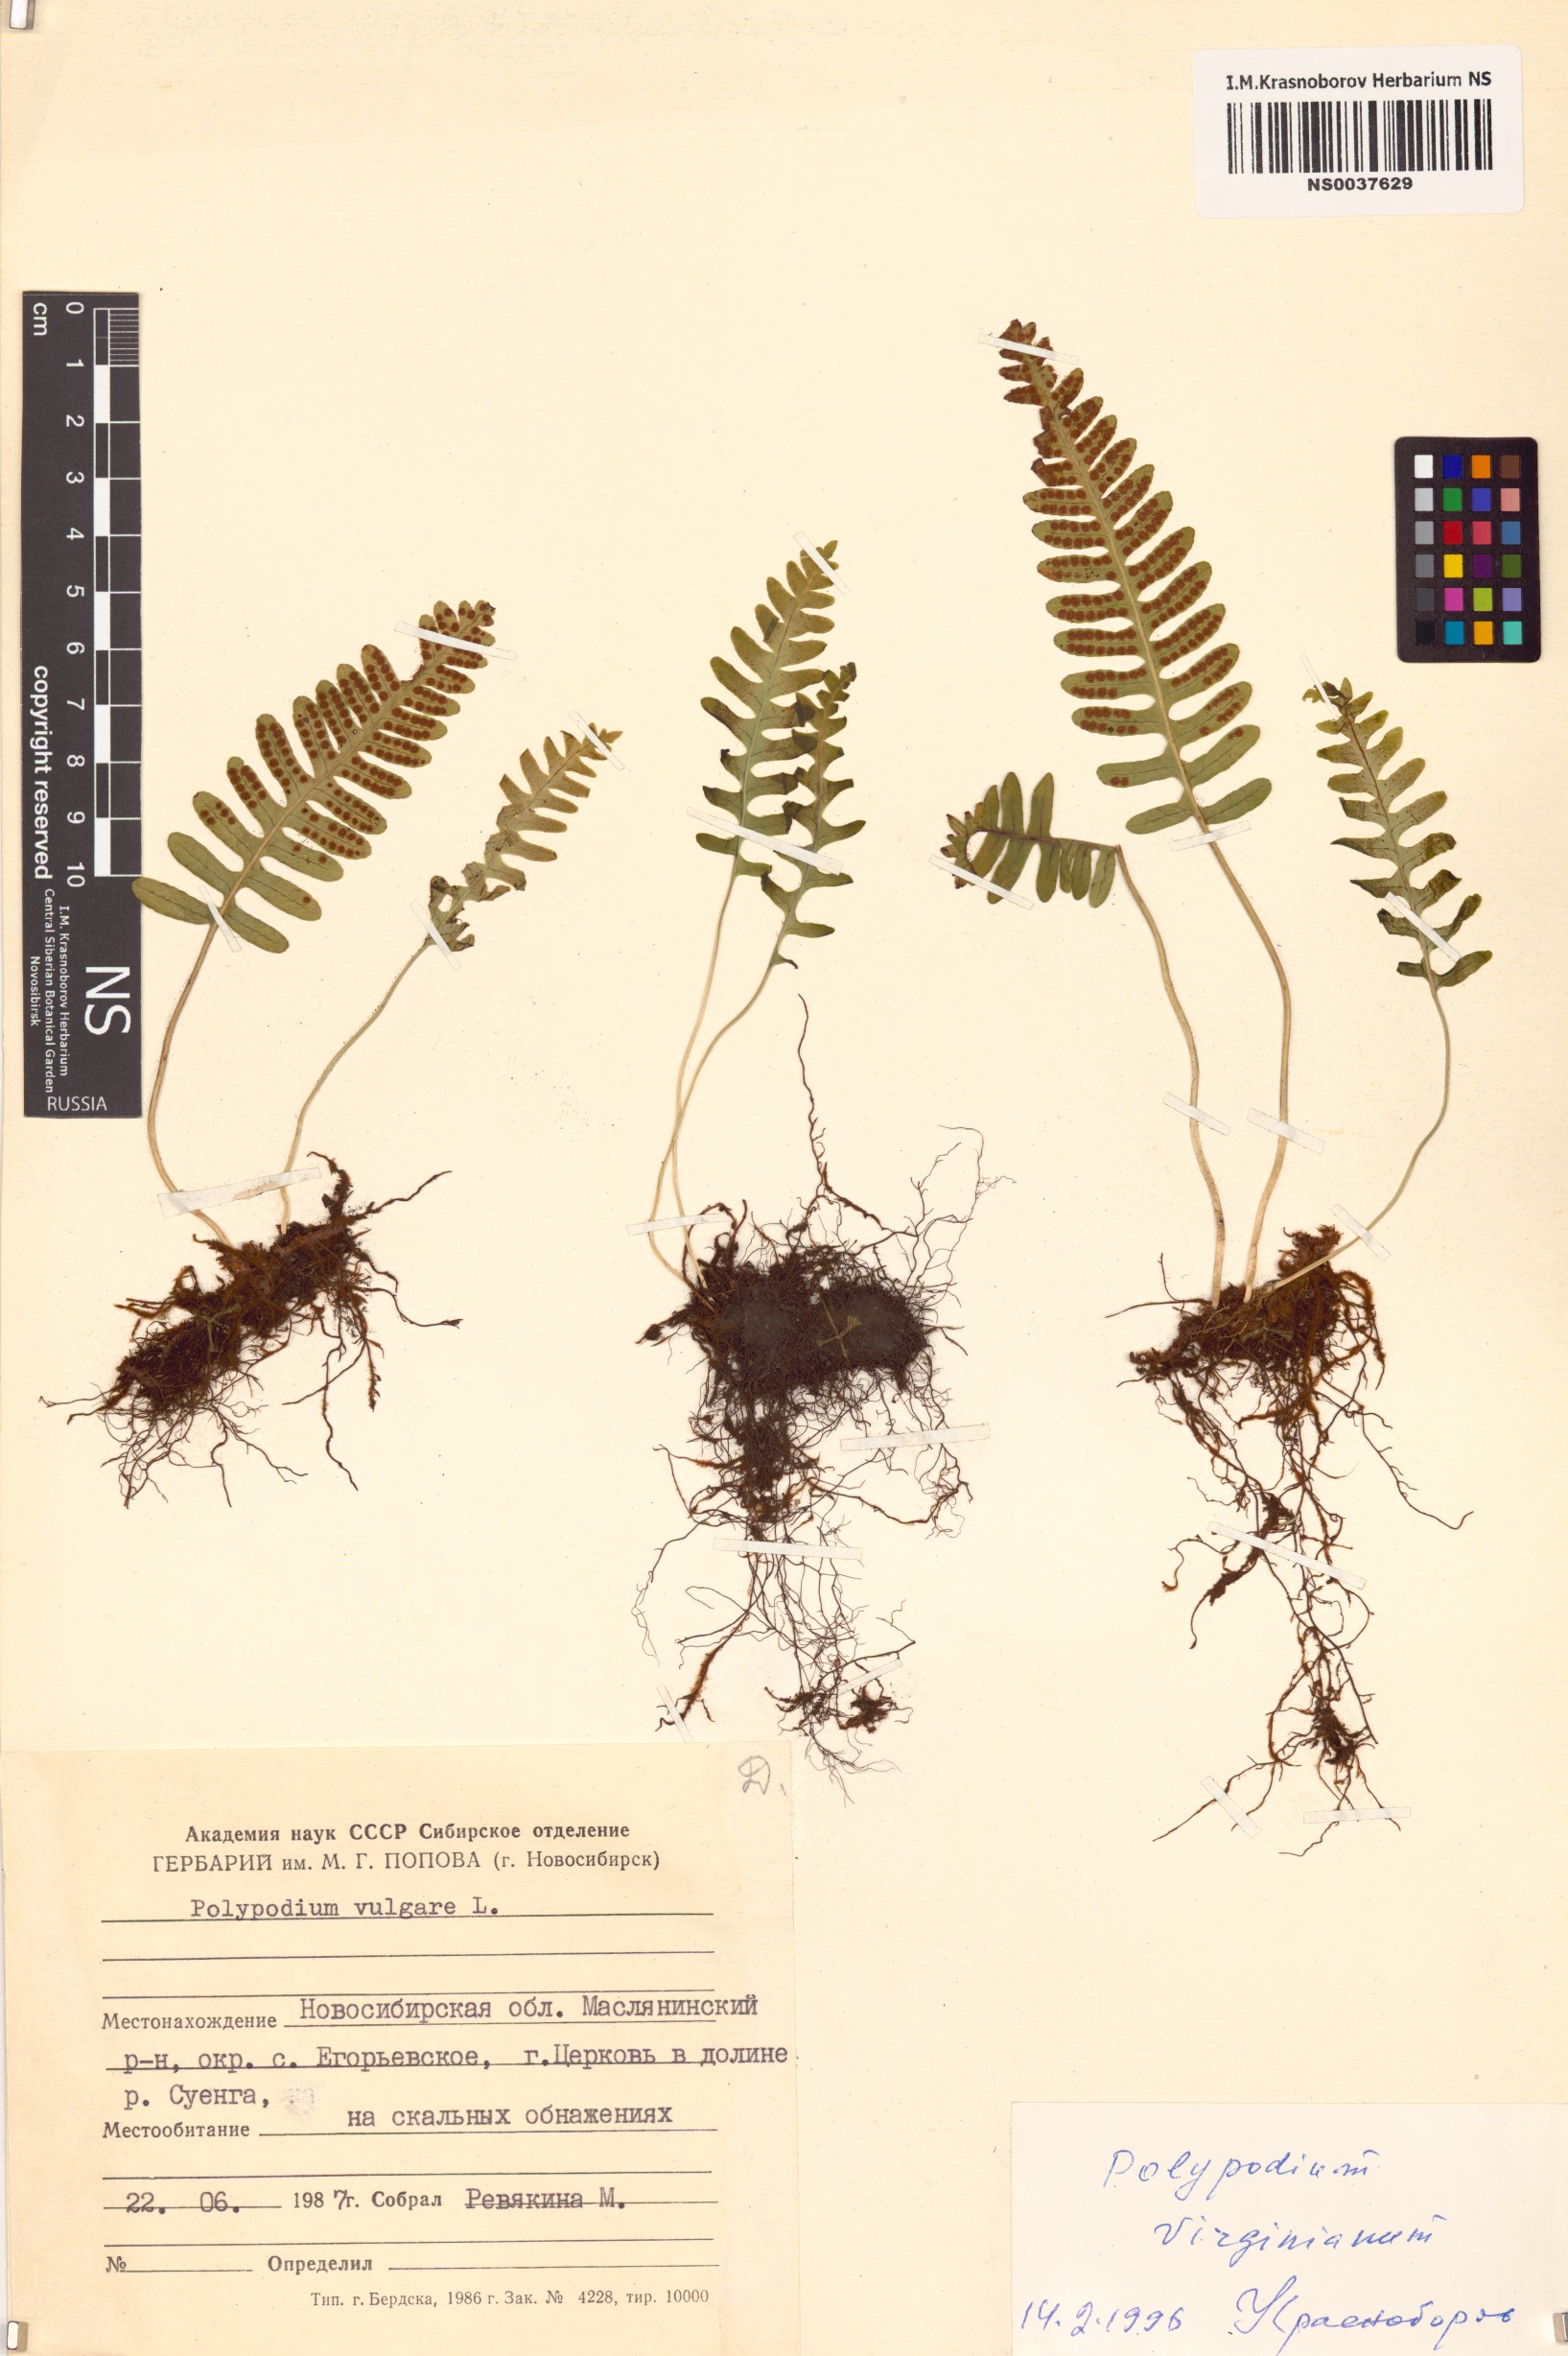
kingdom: Plantae
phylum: Tracheophyta
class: Polypodiopsida
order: Polypodiales
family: Polypodiaceae
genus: Polypodium
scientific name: Polypodium virginianum
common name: American wall fern
